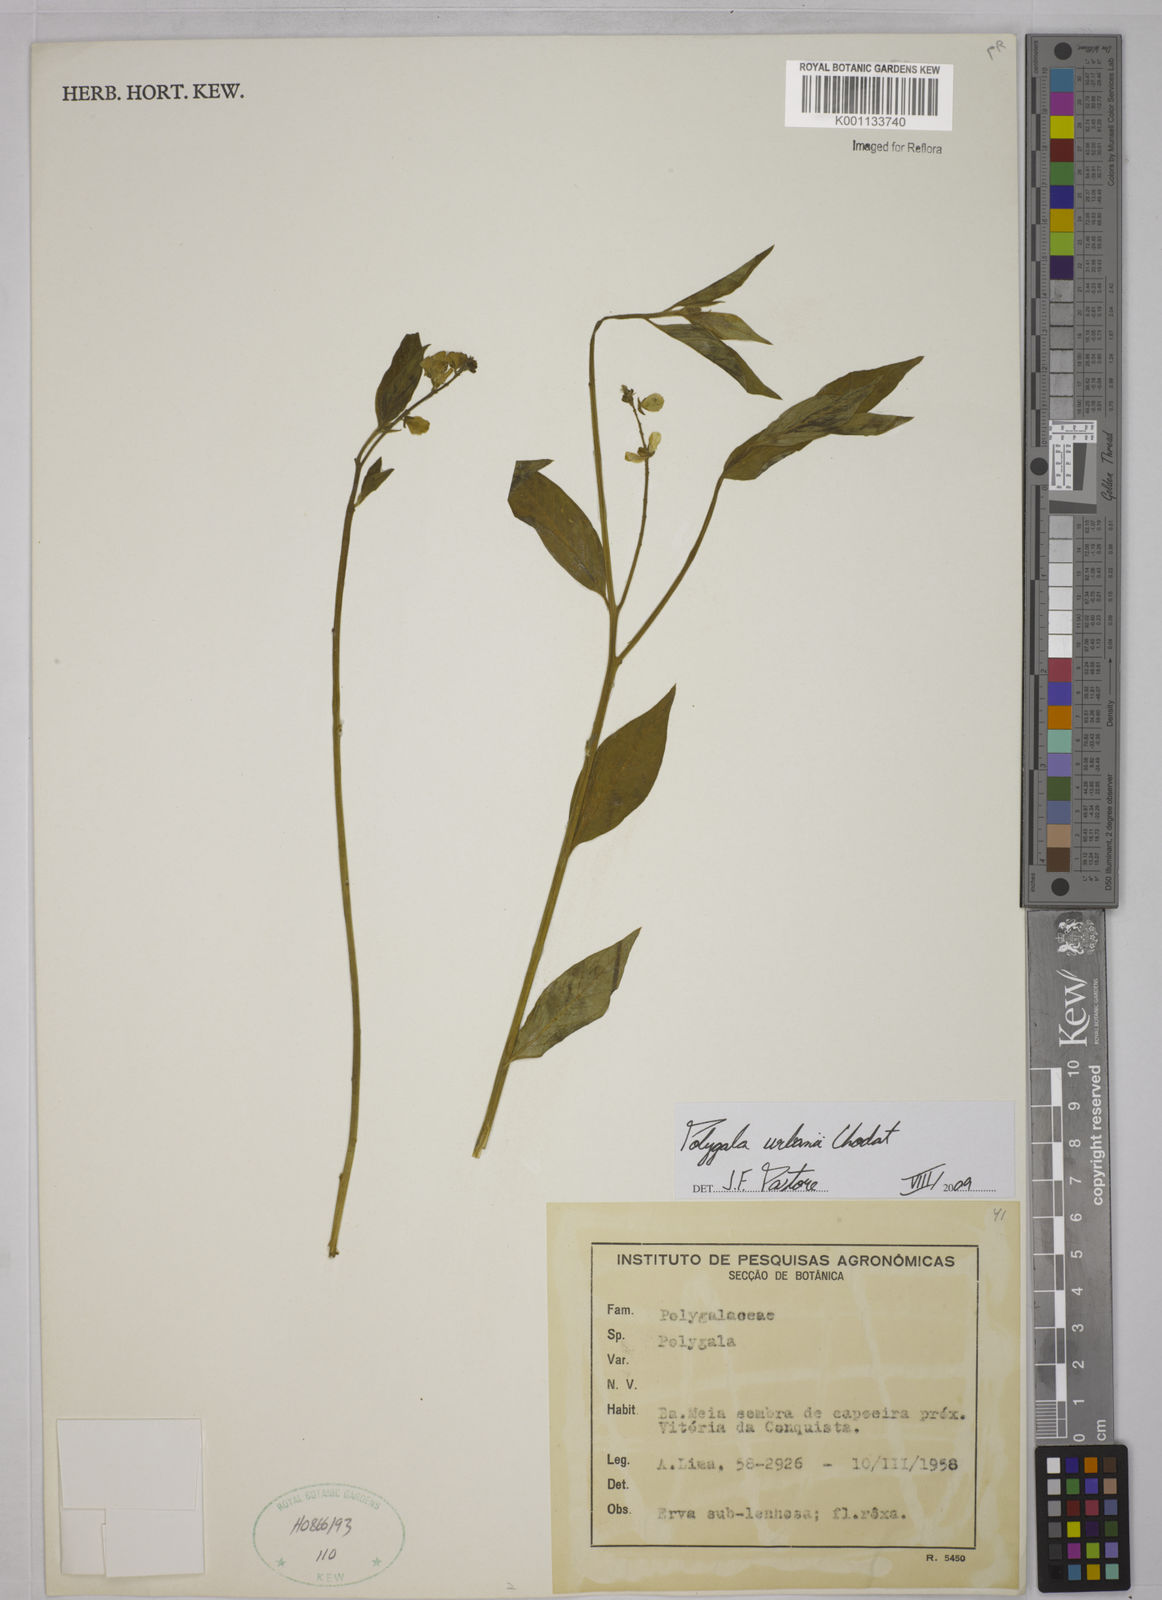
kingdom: Plantae
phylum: Tracheophyta
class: Magnoliopsida
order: Fabales
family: Polygalaceae
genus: Asemeia
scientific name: Asemeia monninoides
